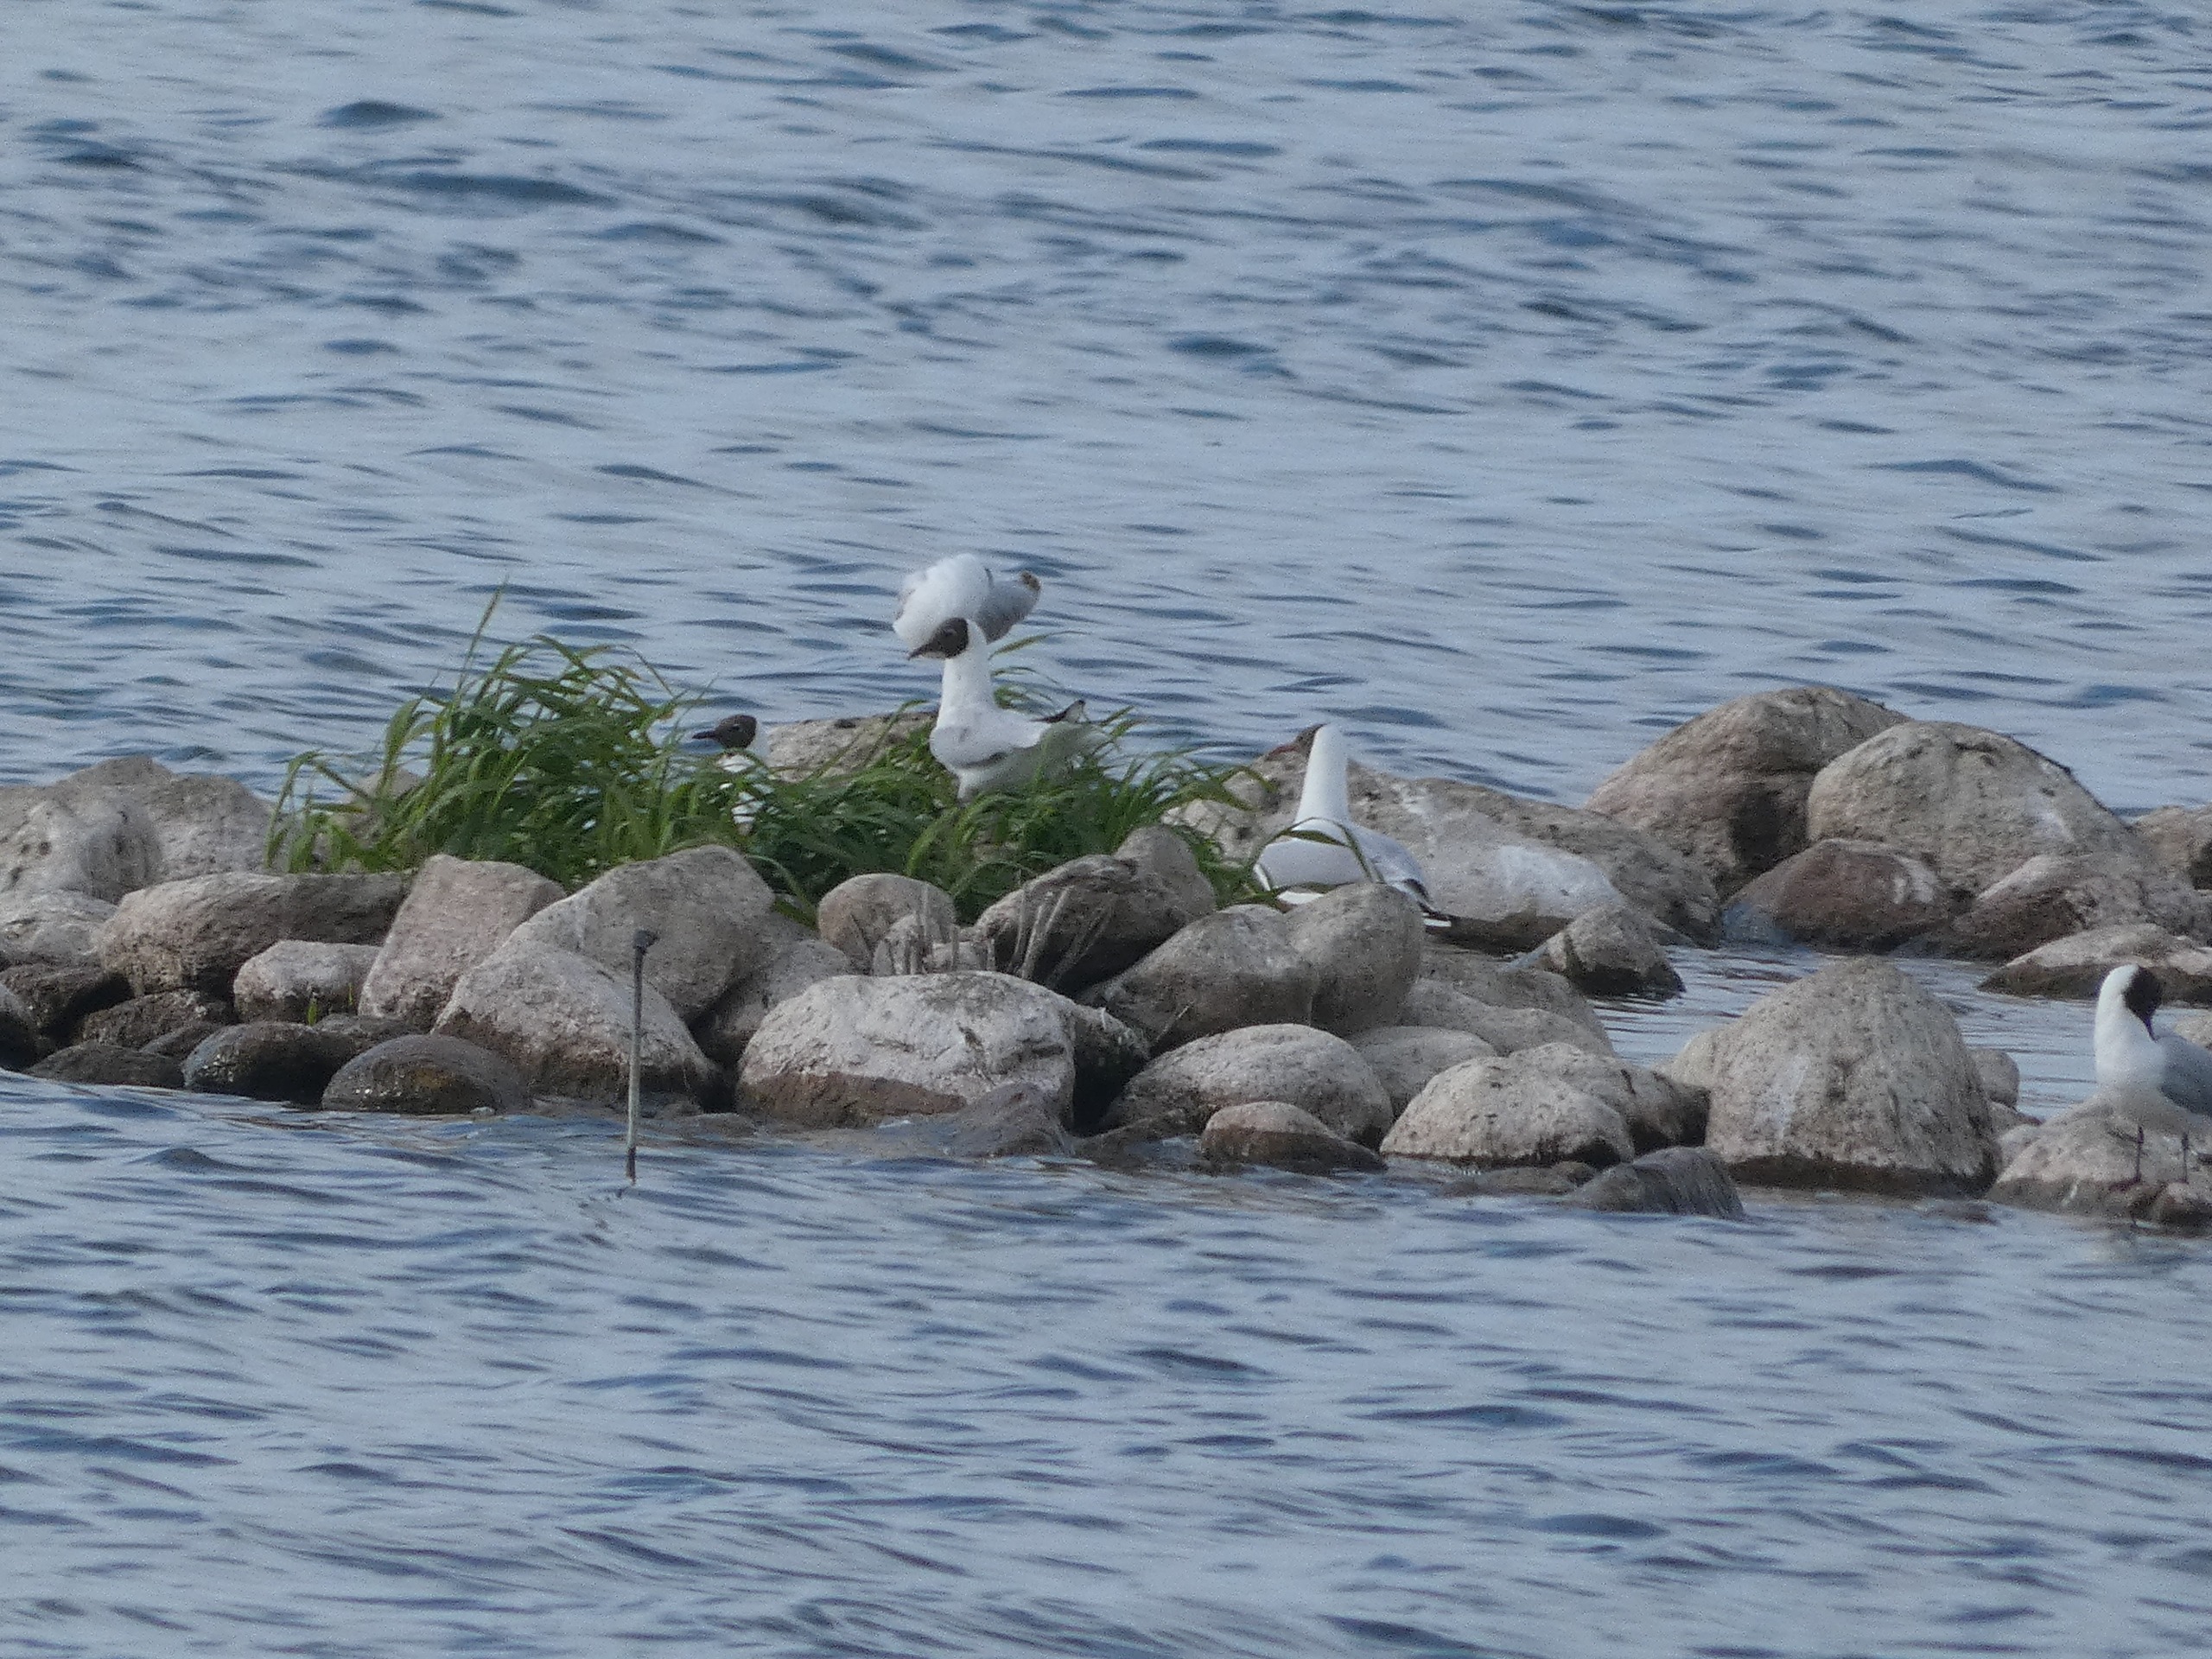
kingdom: Animalia
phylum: Chordata
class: Aves
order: Charadriiformes
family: Laridae
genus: Chroicocephalus
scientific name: Chroicocephalus ridibundus
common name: Hættemåge
